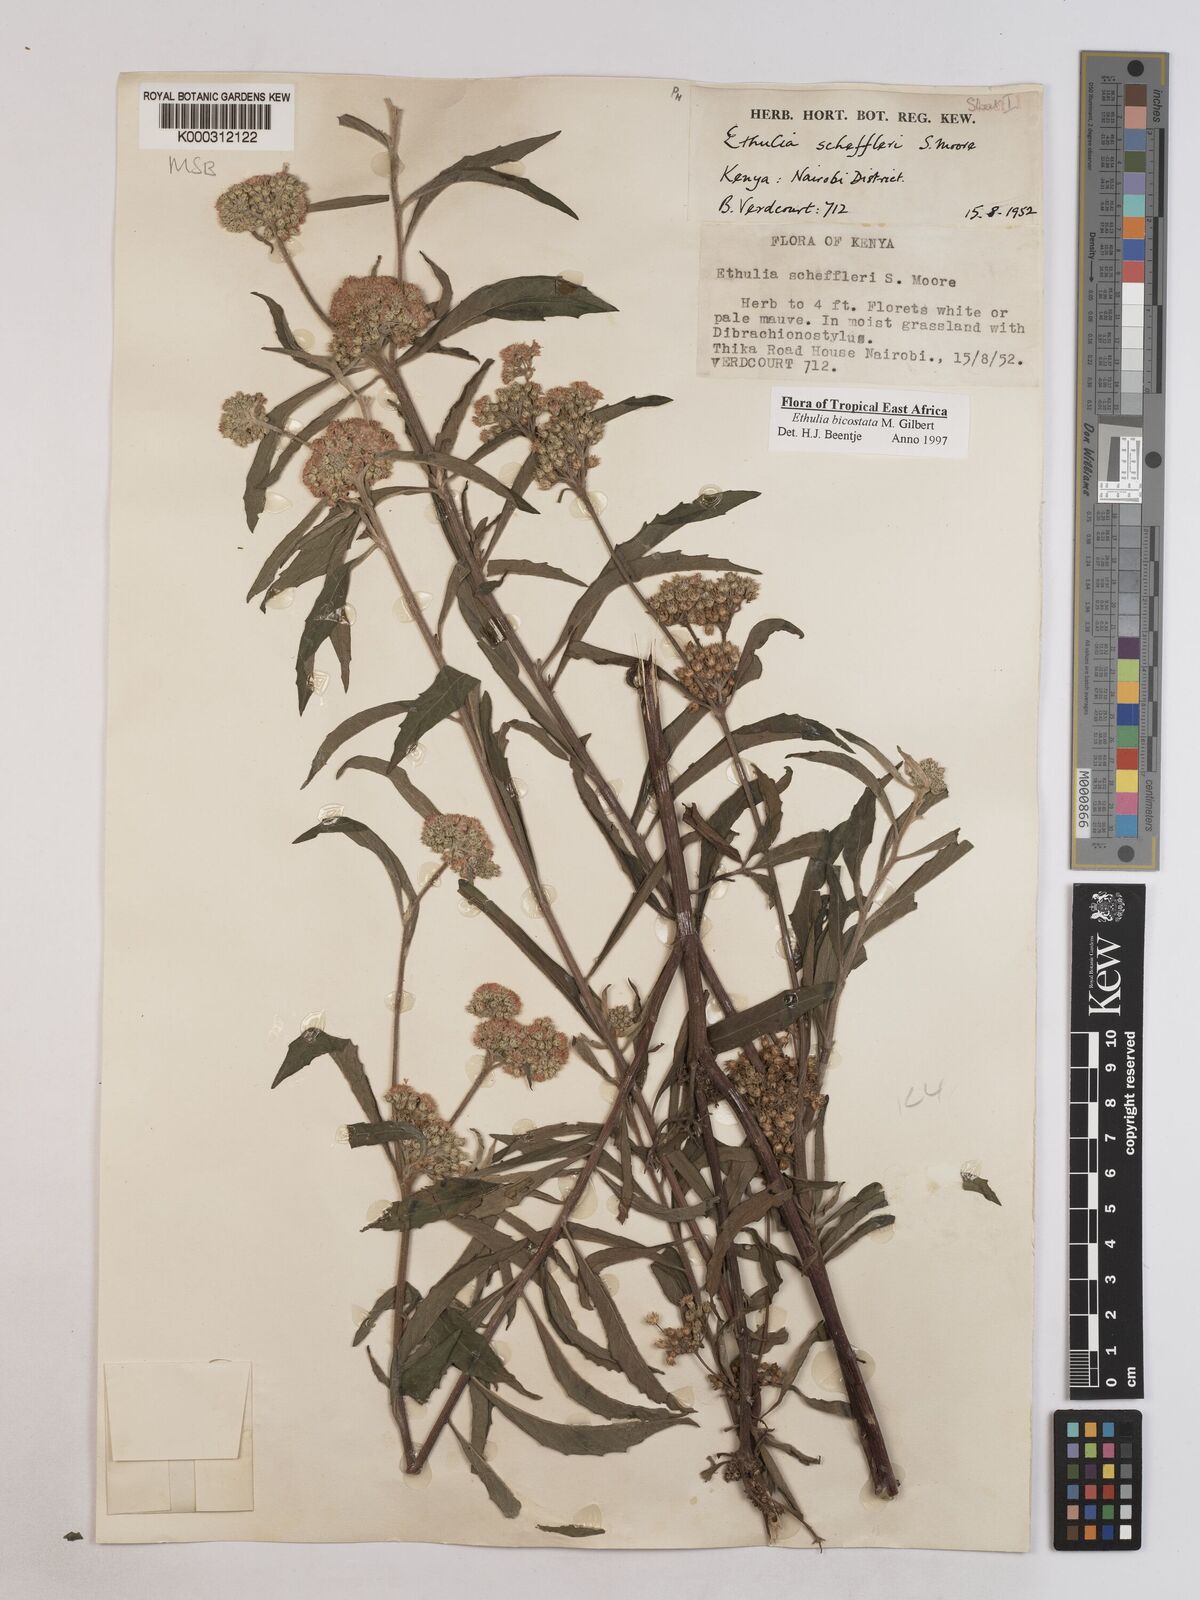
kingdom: Plantae
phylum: Tracheophyta
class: Magnoliopsida
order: Asterales
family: Asteraceae
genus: Ethulia
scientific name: Ethulia bicostata
